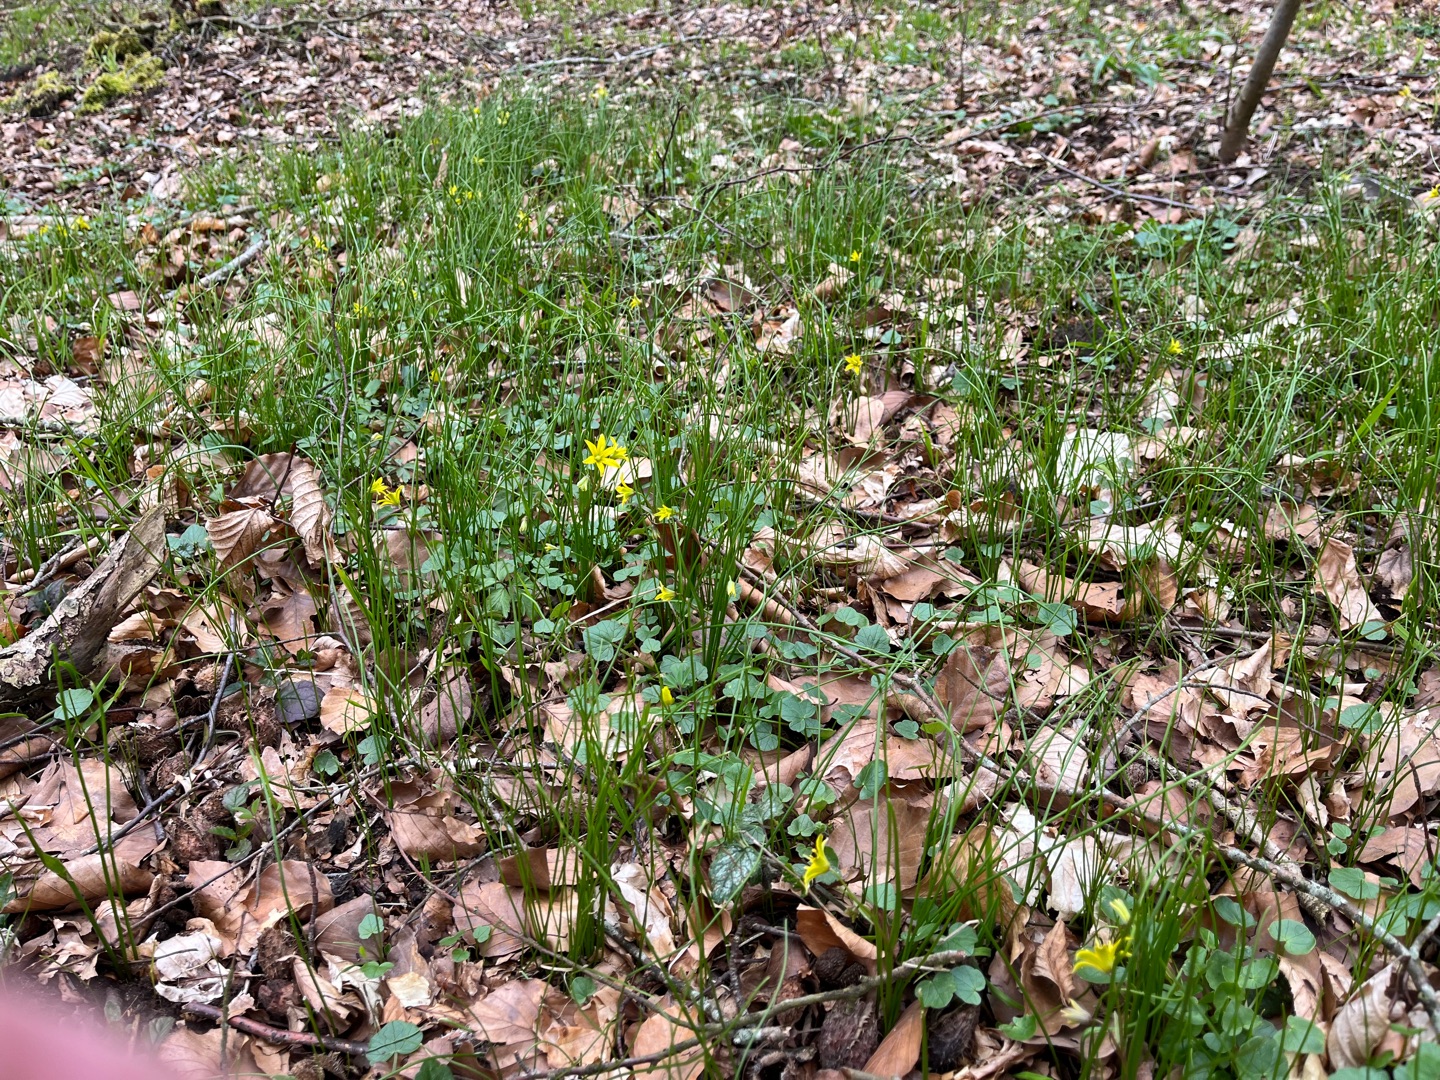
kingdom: Plantae
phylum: Tracheophyta
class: Liliopsida
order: Liliales
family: Liliaceae
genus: Gagea
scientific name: Gagea spathacea
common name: Hylster-guldstjerne
